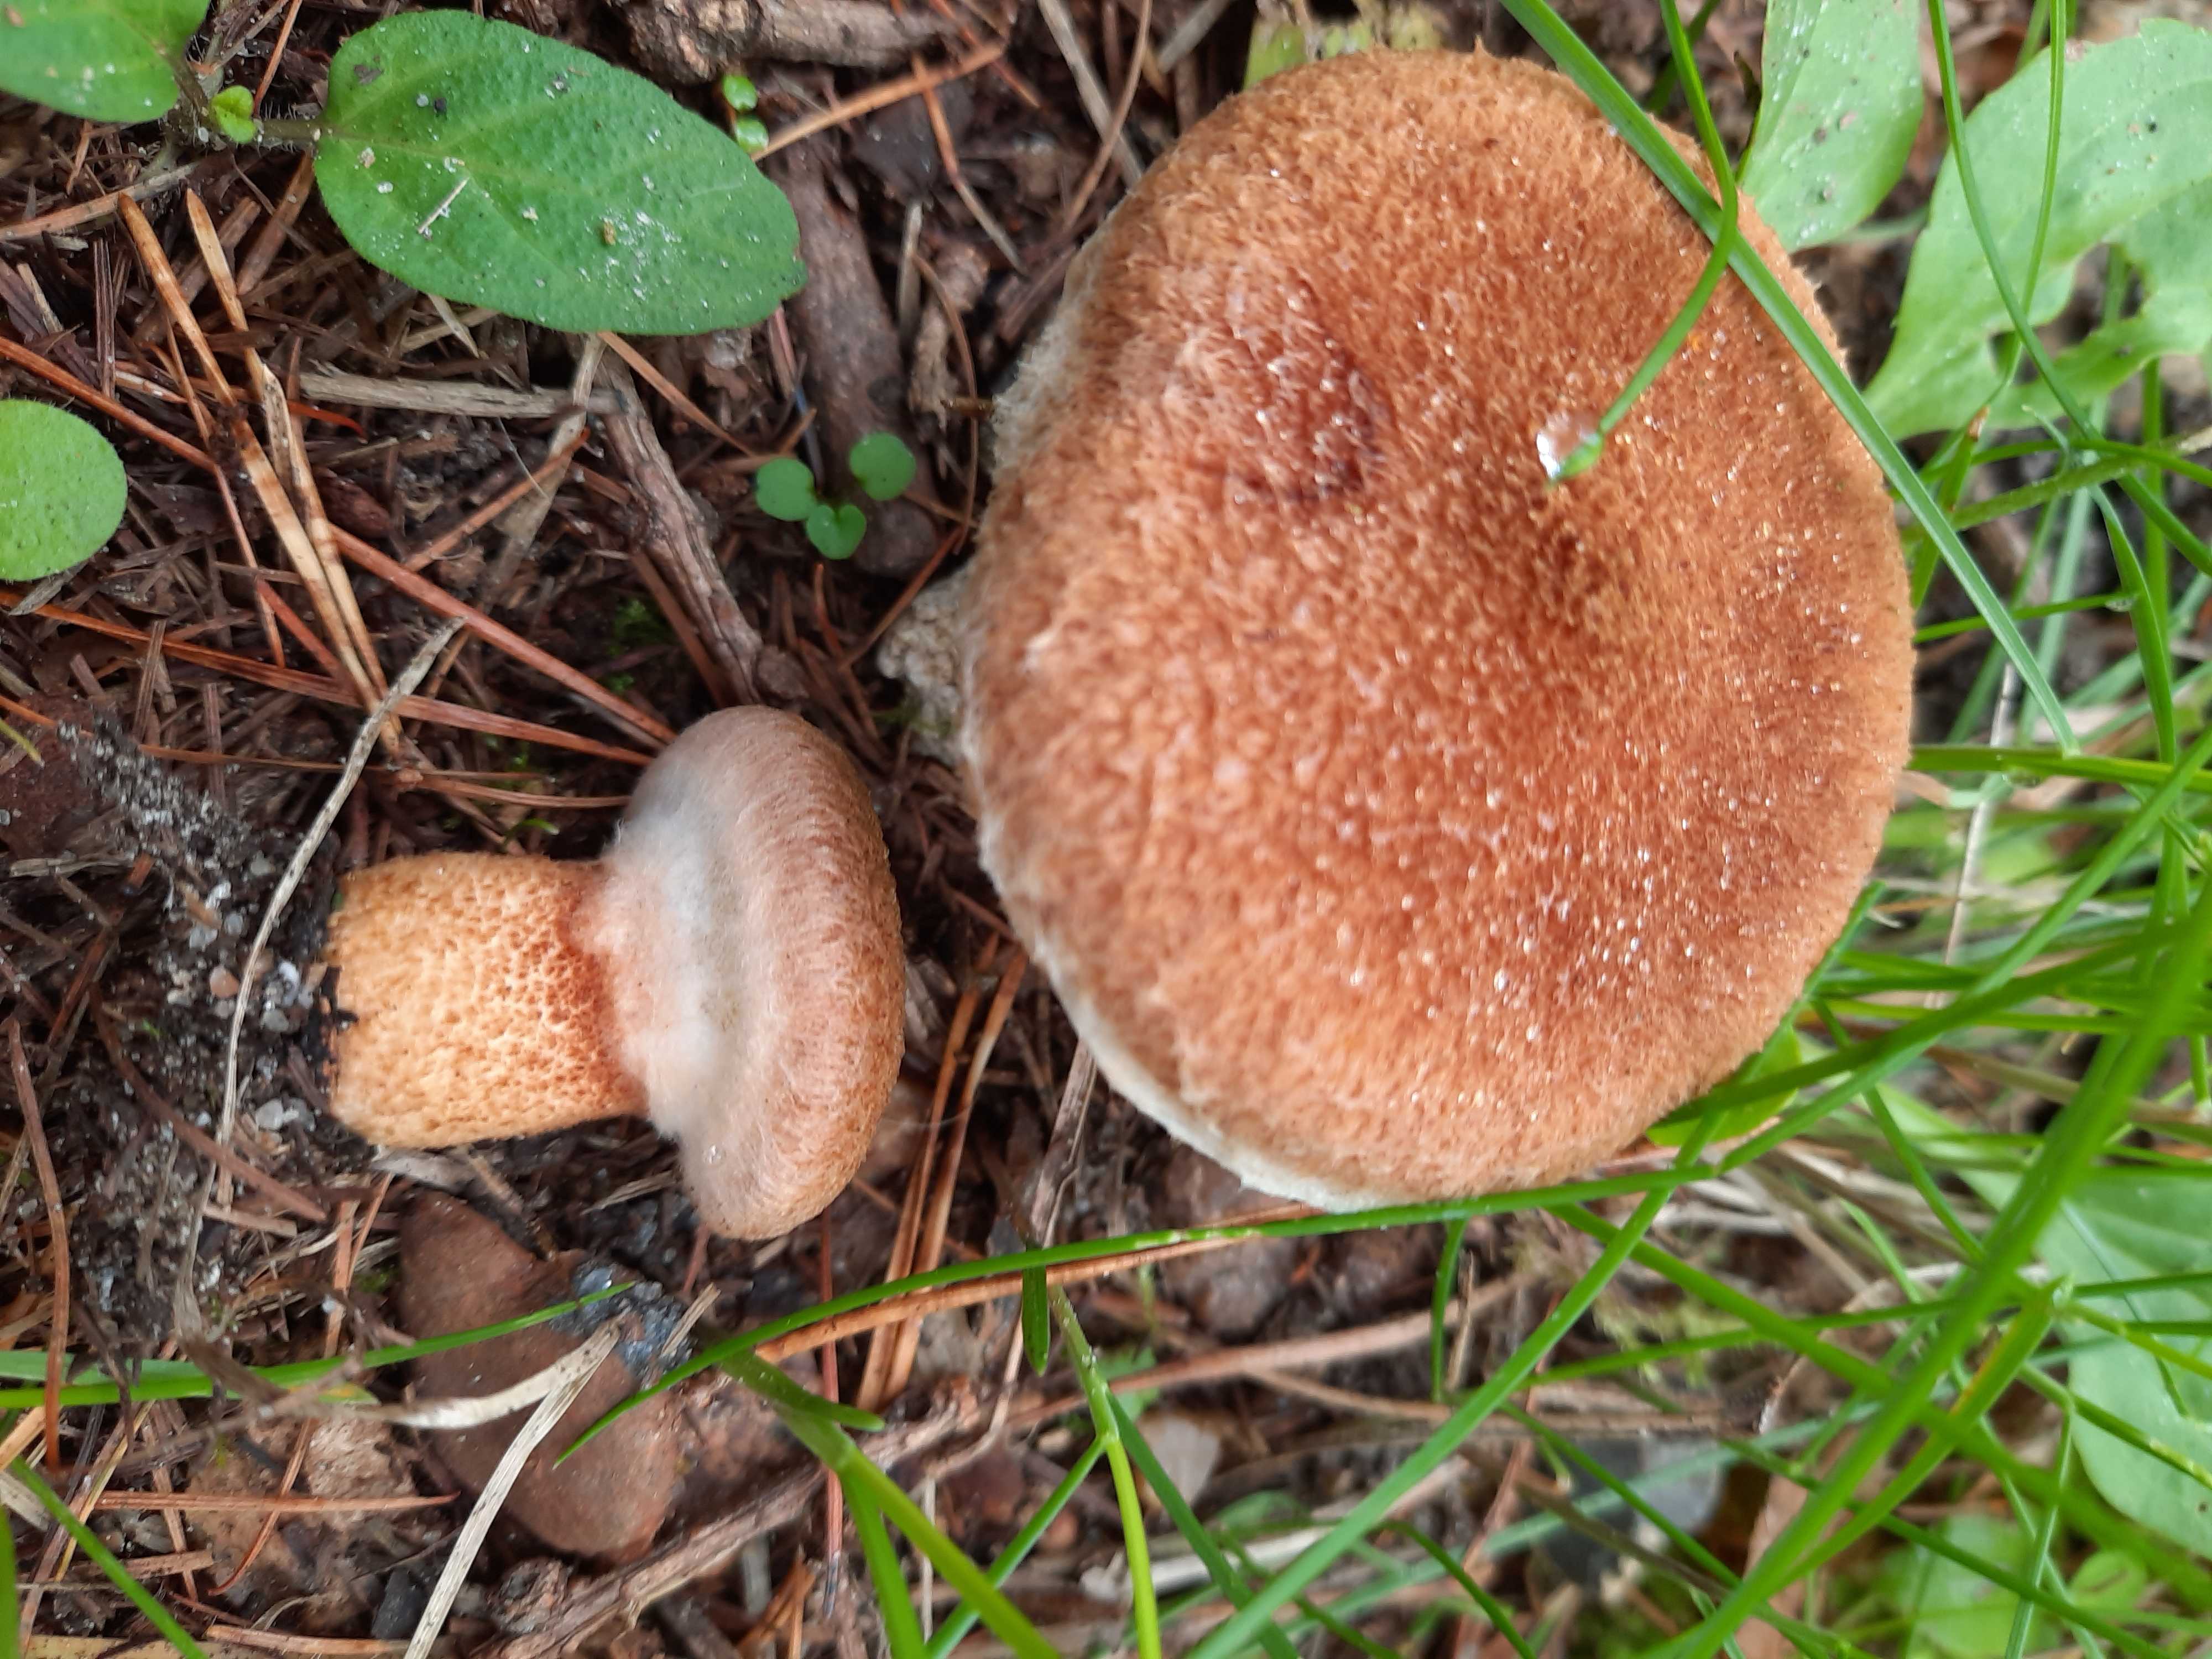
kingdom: Fungi
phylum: Basidiomycota
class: Agaricomycetes
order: Boletales
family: Suillaceae
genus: Suillus
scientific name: Suillus cavipes
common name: hulstokket slimrørhat
